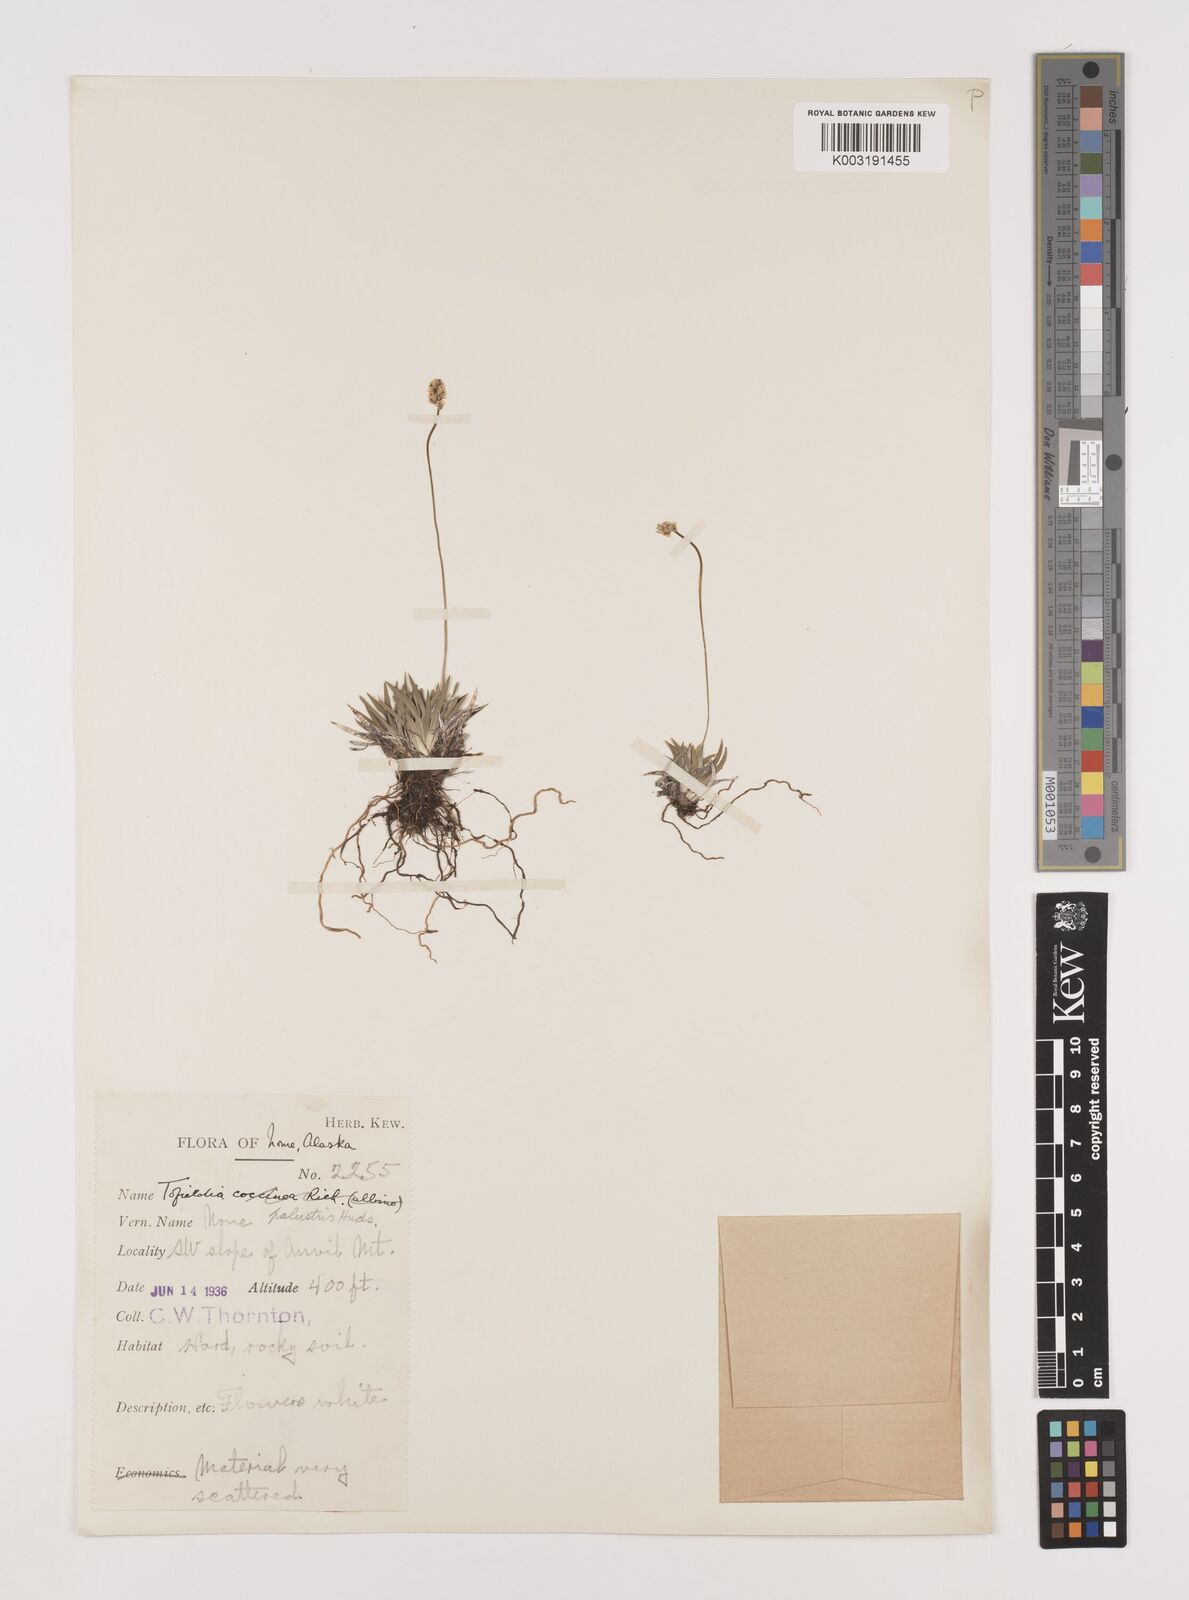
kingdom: Plantae
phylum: Tracheophyta
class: Liliopsida
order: Alismatales
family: Tofieldiaceae
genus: Tofieldia
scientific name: Tofieldia calyculata
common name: German-asphodel
